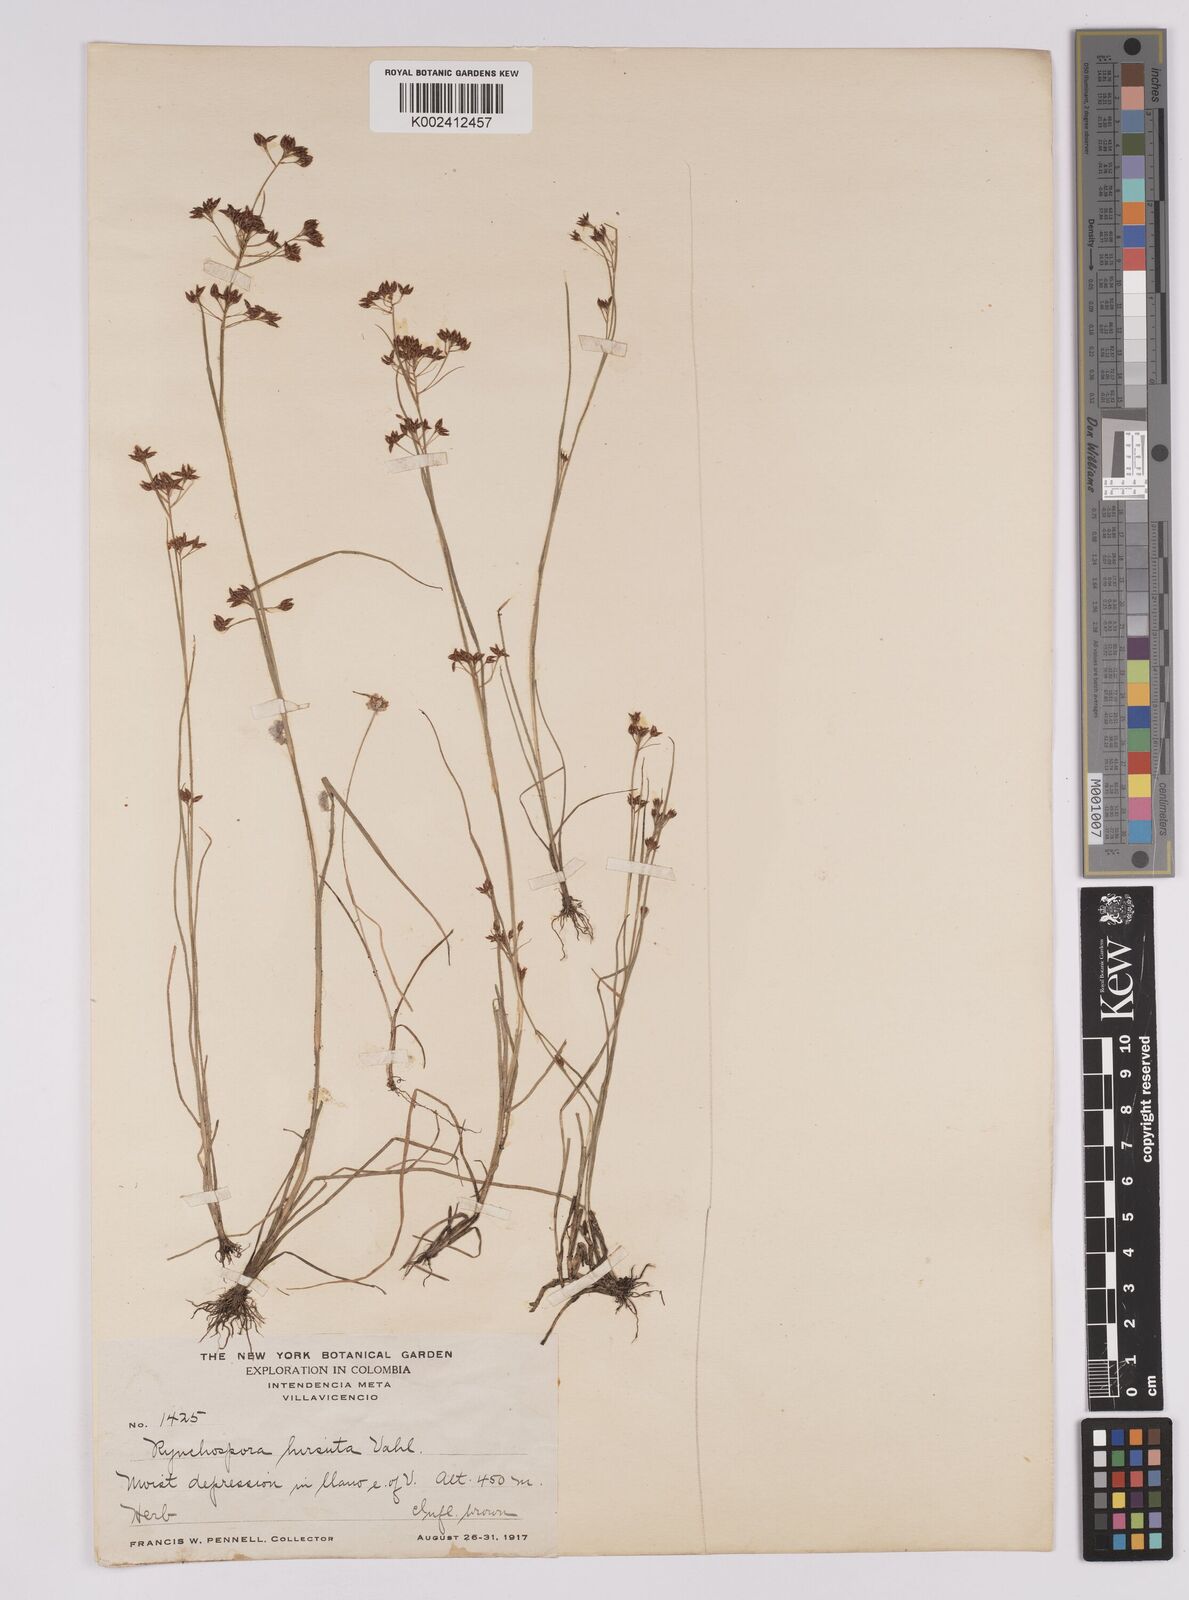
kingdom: Plantae
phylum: Tracheophyta
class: Liliopsida
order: Poales
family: Cyperaceae
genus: Rhynchospora
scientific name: Rhynchospora hirsuta
